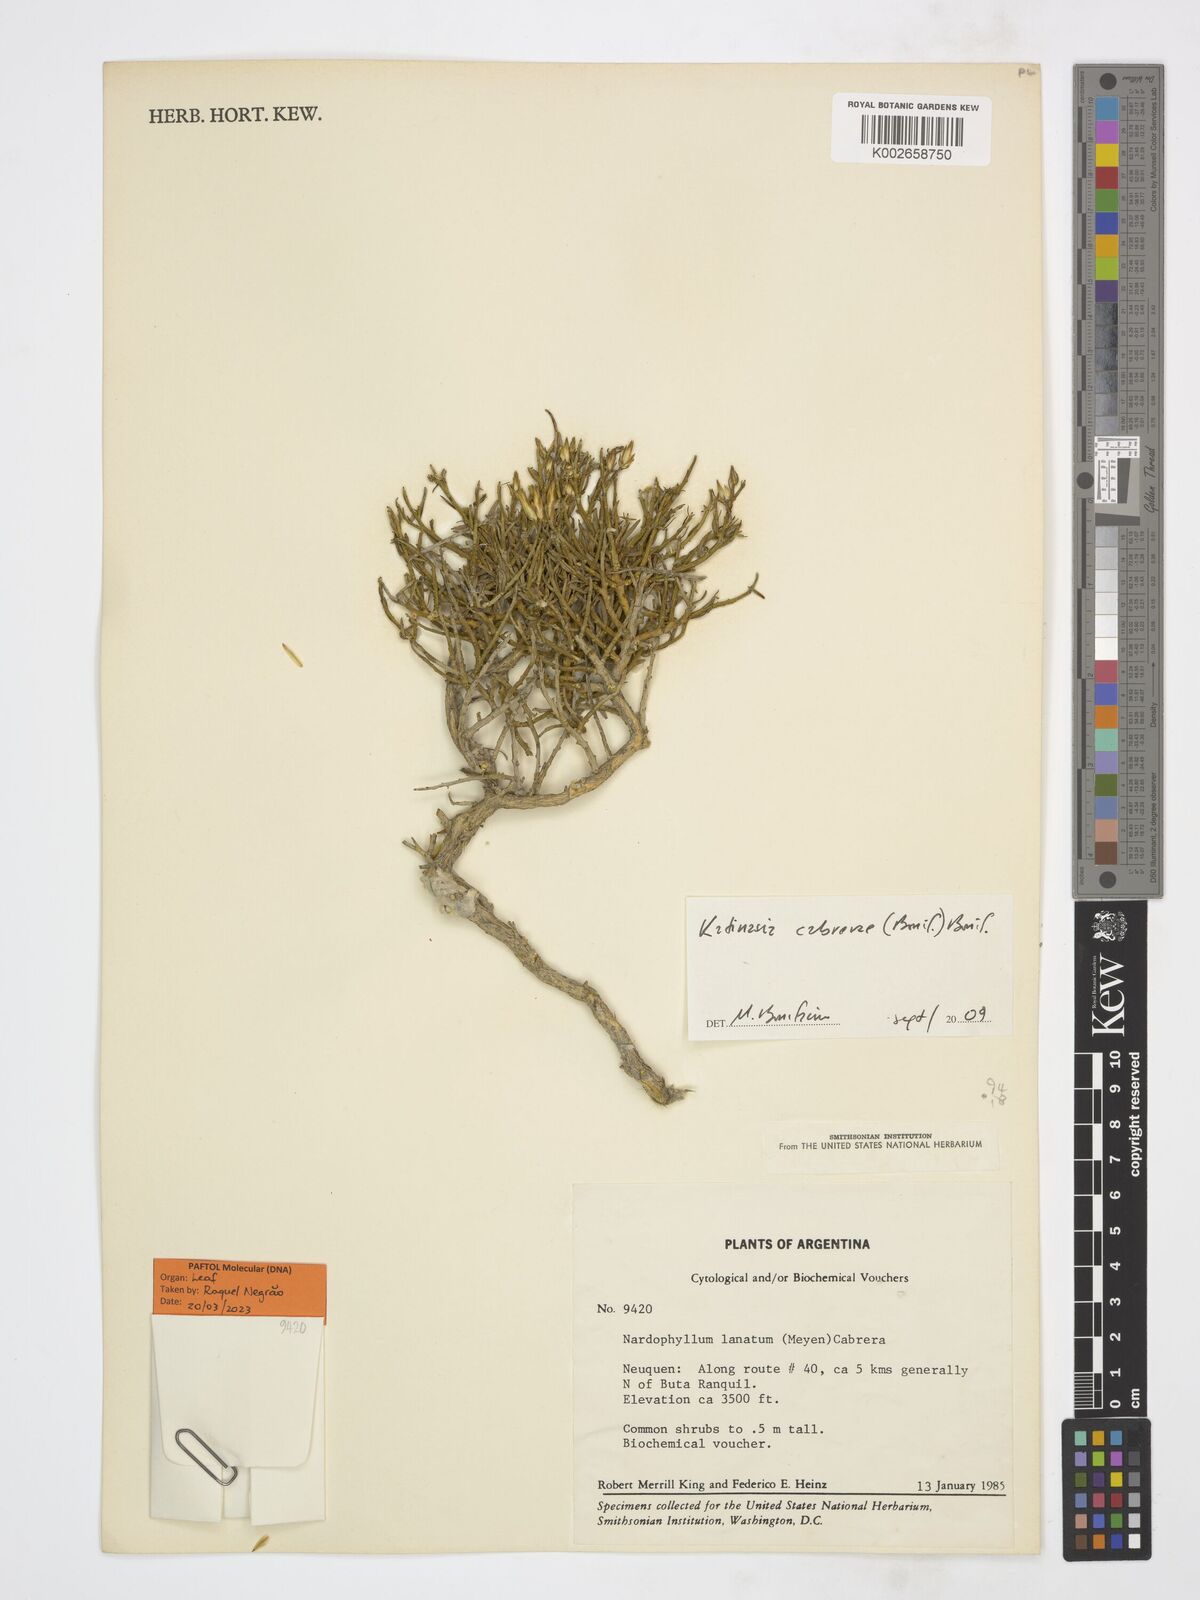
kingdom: Plantae
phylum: Tracheophyta
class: Magnoliopsida
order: Asterales
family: Asteraceae
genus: Katinasia
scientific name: Katinasia cabrerae
